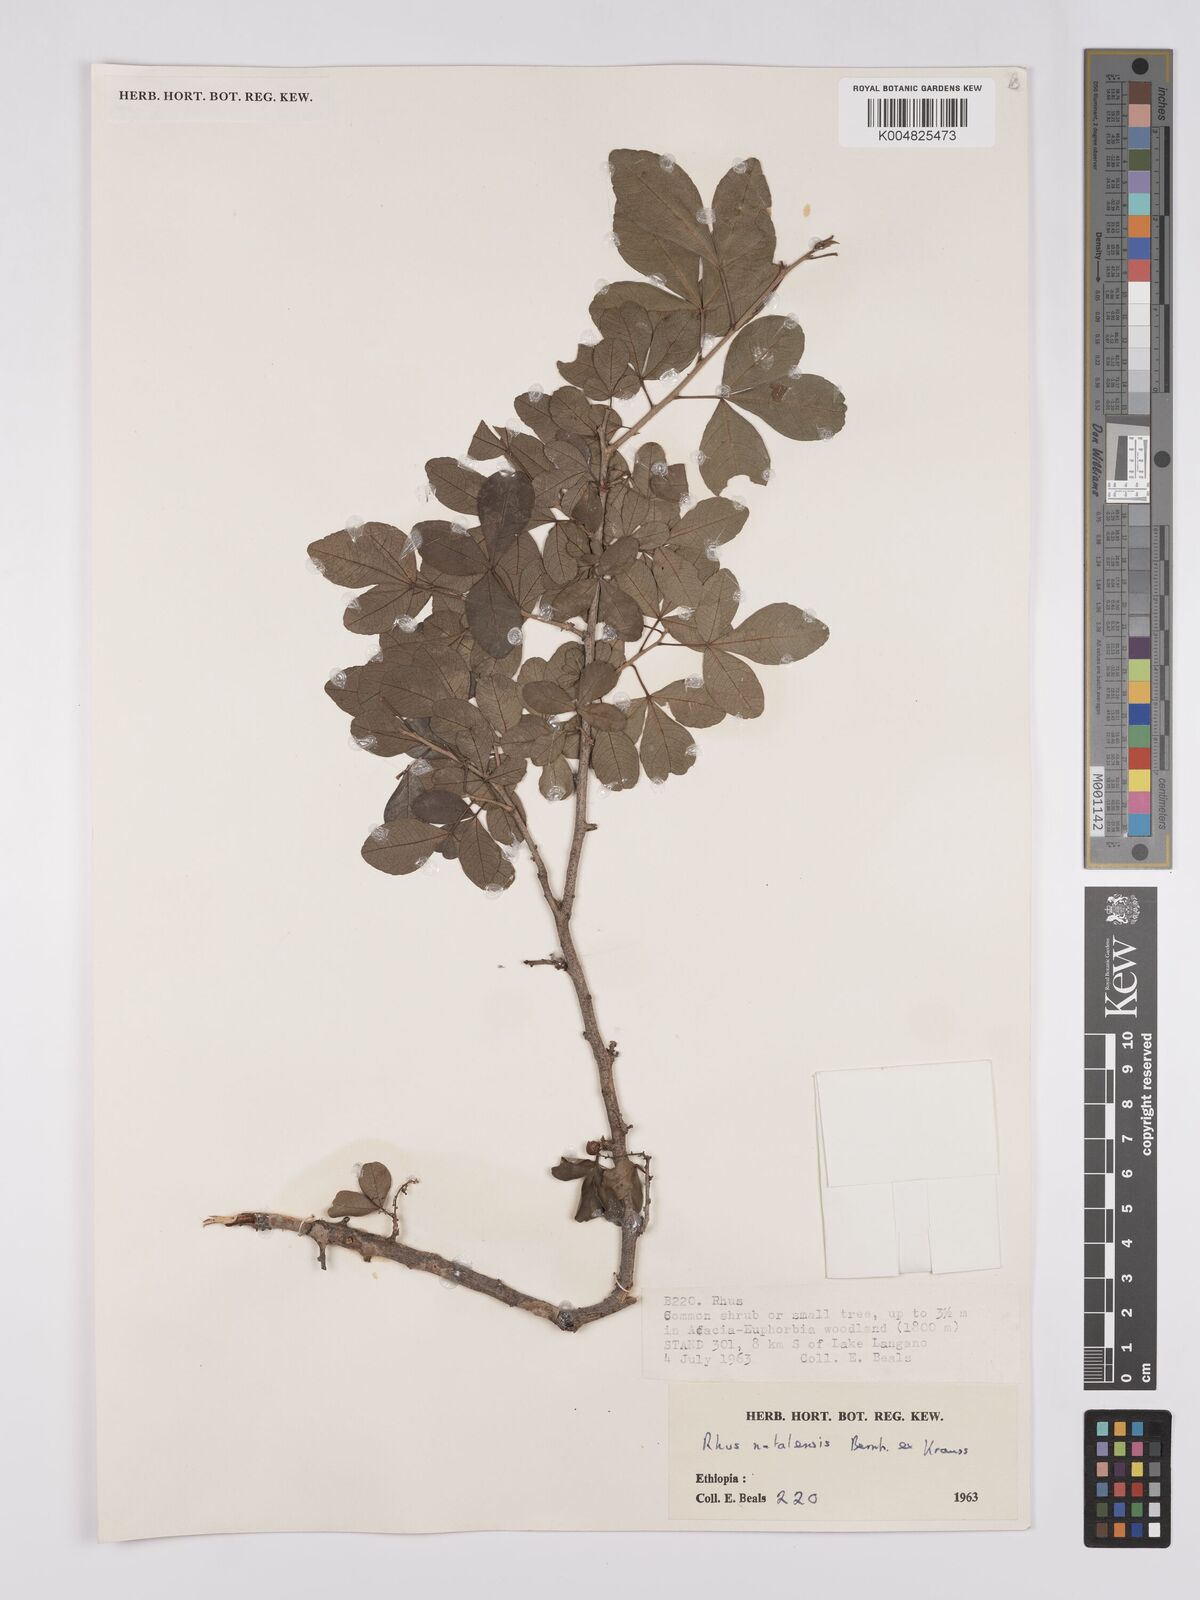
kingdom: Plantae
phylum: Tracheophyta
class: Magnoliopsida
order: Sapindales
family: Anacardiaceae
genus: Searsia
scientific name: Searsia natalensis
